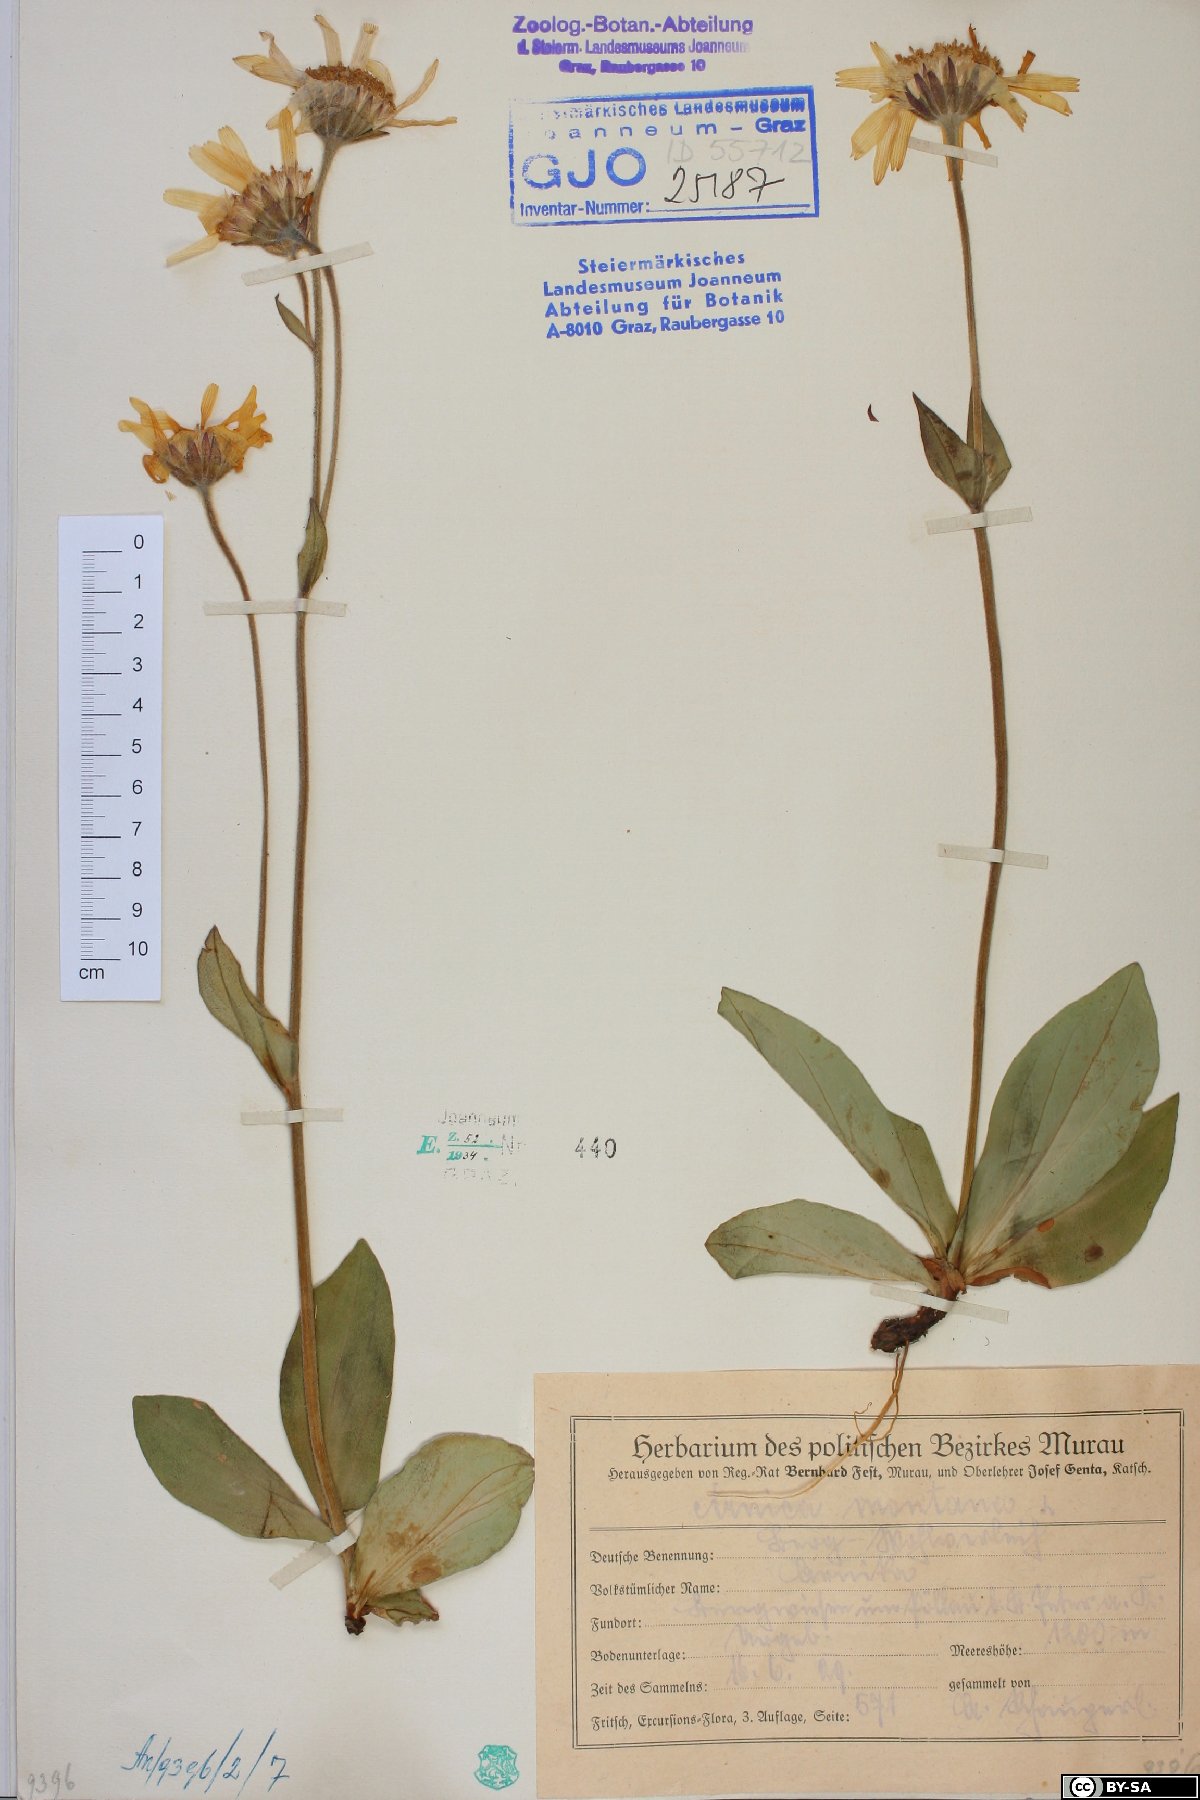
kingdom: Plantae
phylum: Tracheophyta
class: Magnoliopsida
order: Asterales
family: Asteraceae
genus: Arnica
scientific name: Arnica montana
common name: Leopard's bane
